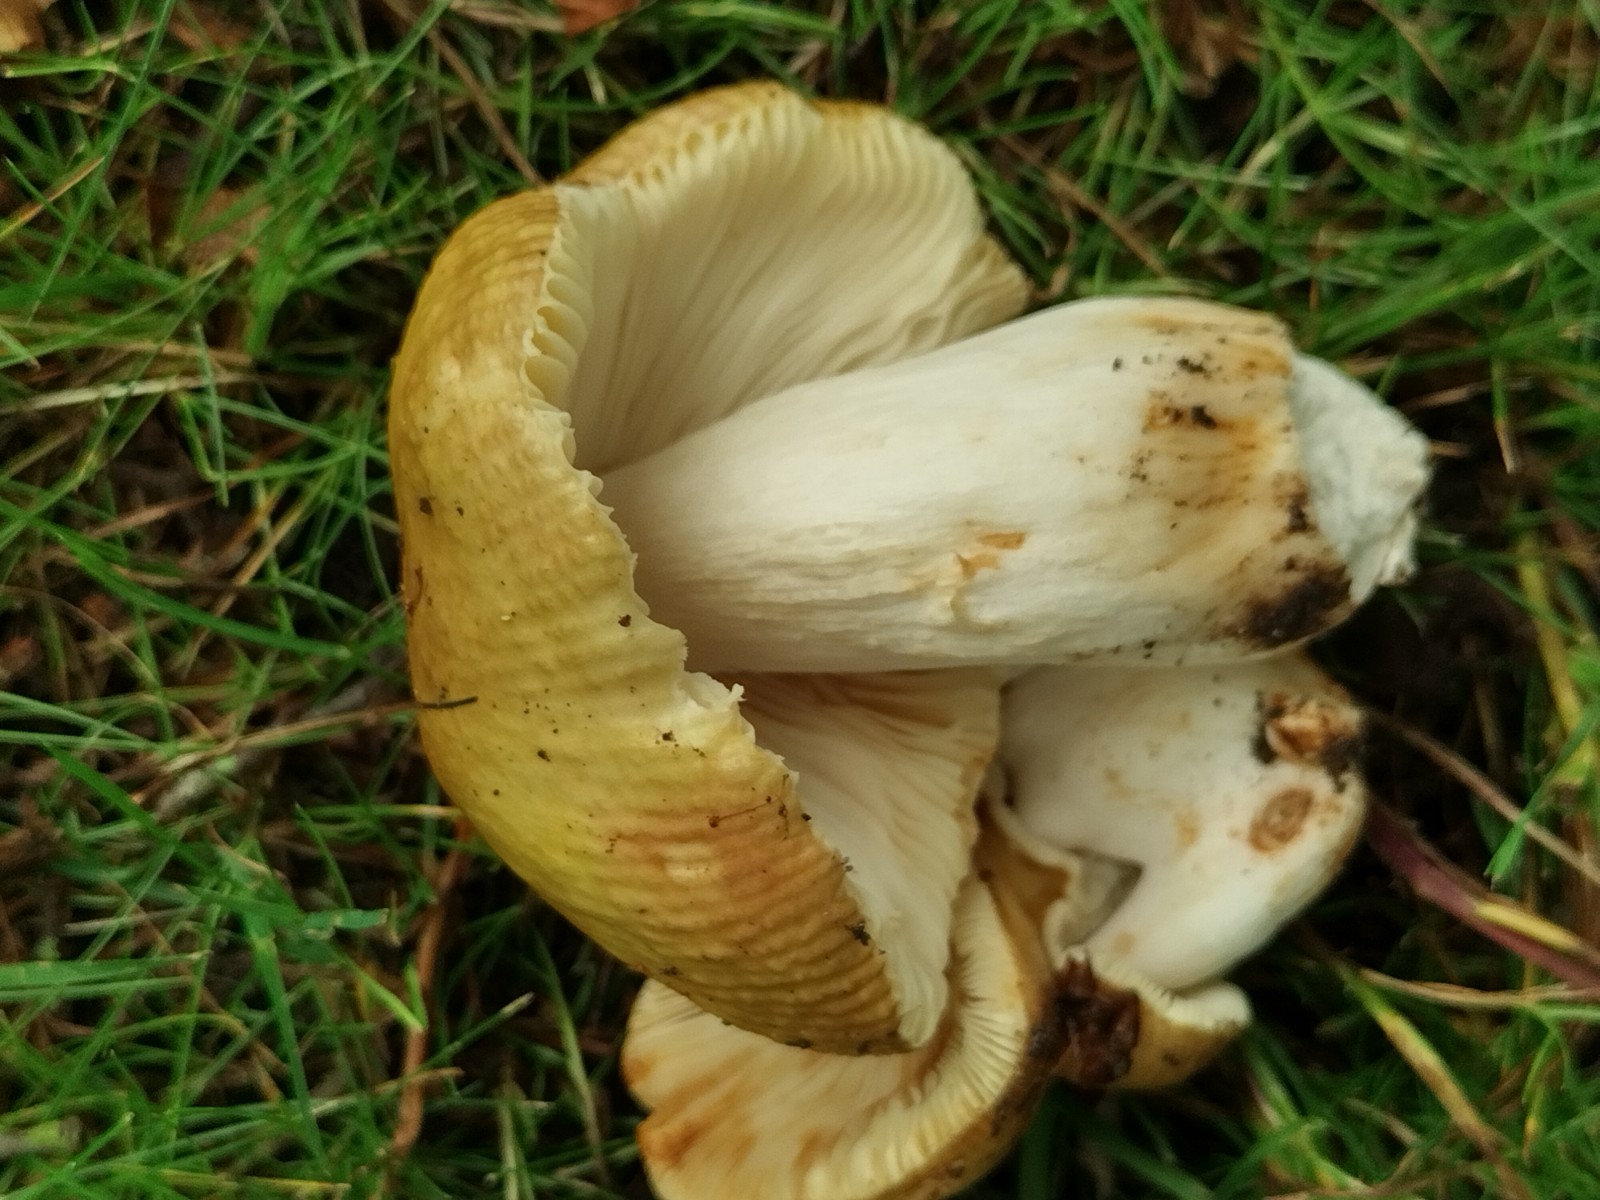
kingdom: Fungi
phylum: Basidiomycota
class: Agaricomycetes
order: Russulales
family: Russulaceae
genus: Russula
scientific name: Russula recondita
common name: mild kam-skørhat
